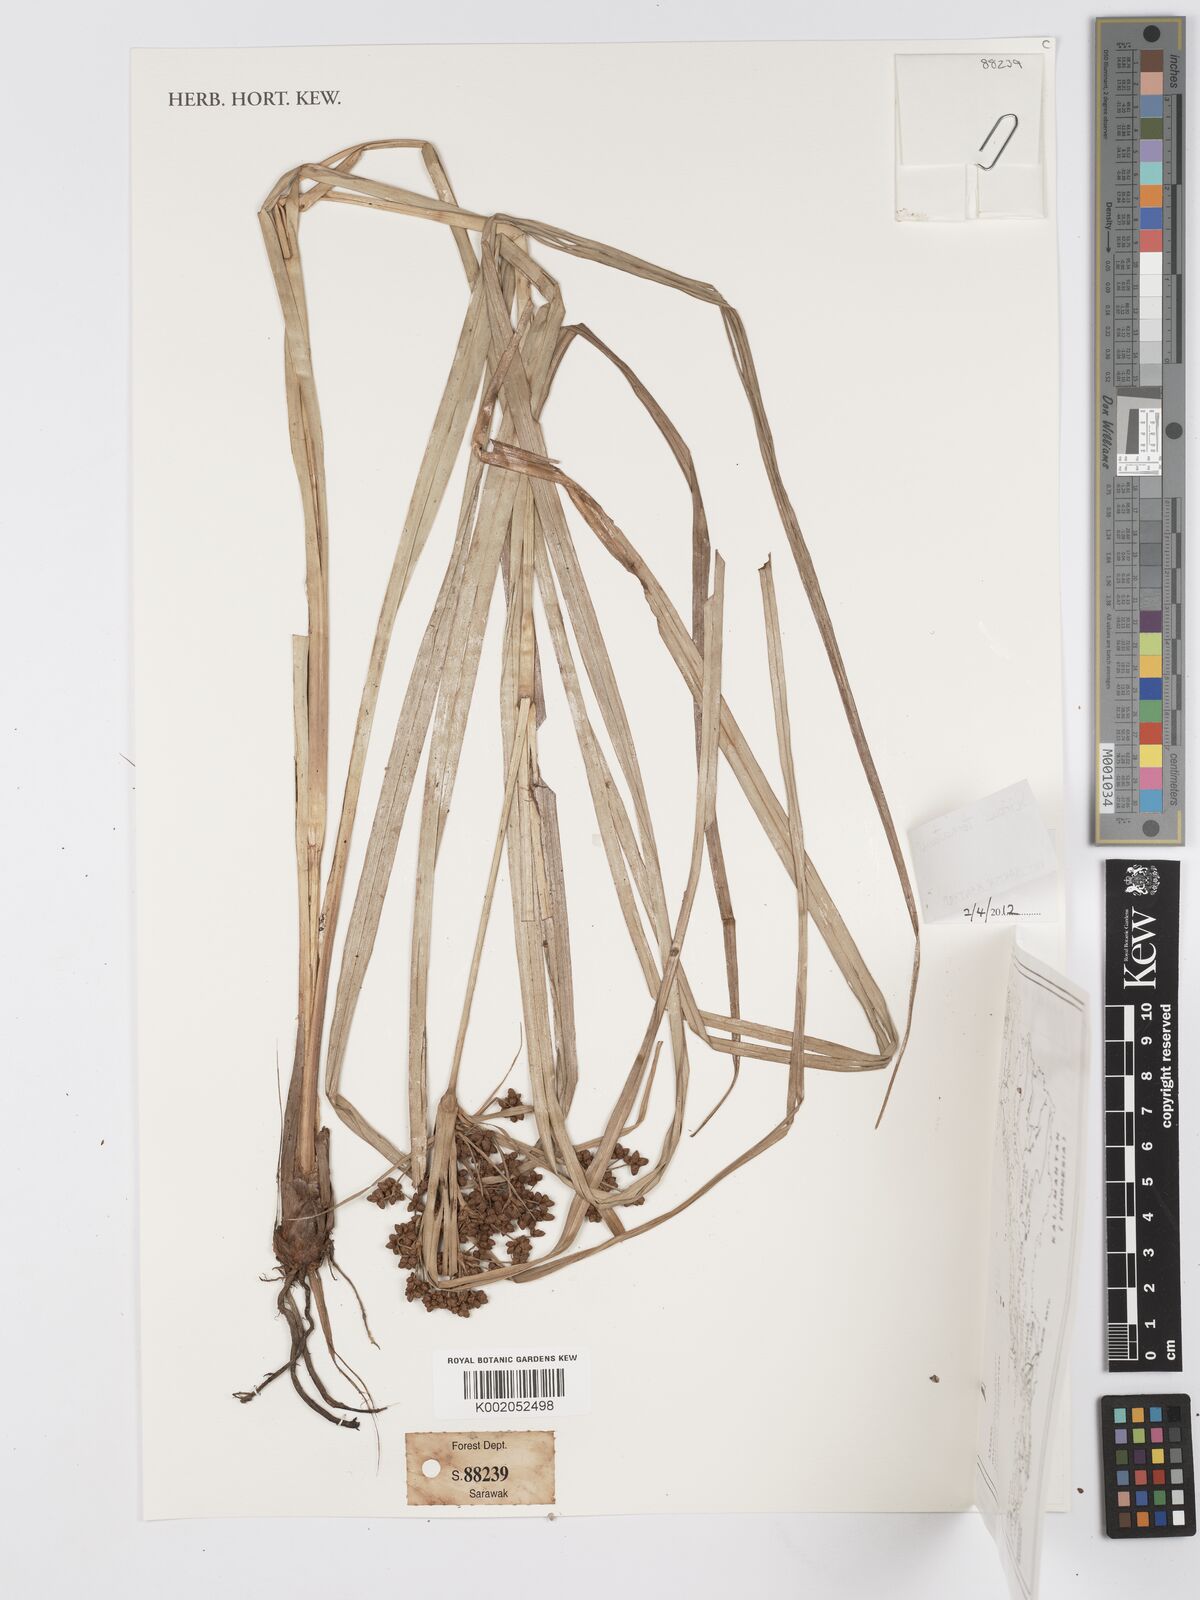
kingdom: Plantae
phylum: Tracheophyta
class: Liliopsida
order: Poales
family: Cyperaceae
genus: Scirpus
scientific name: Scirpus ternatanus
